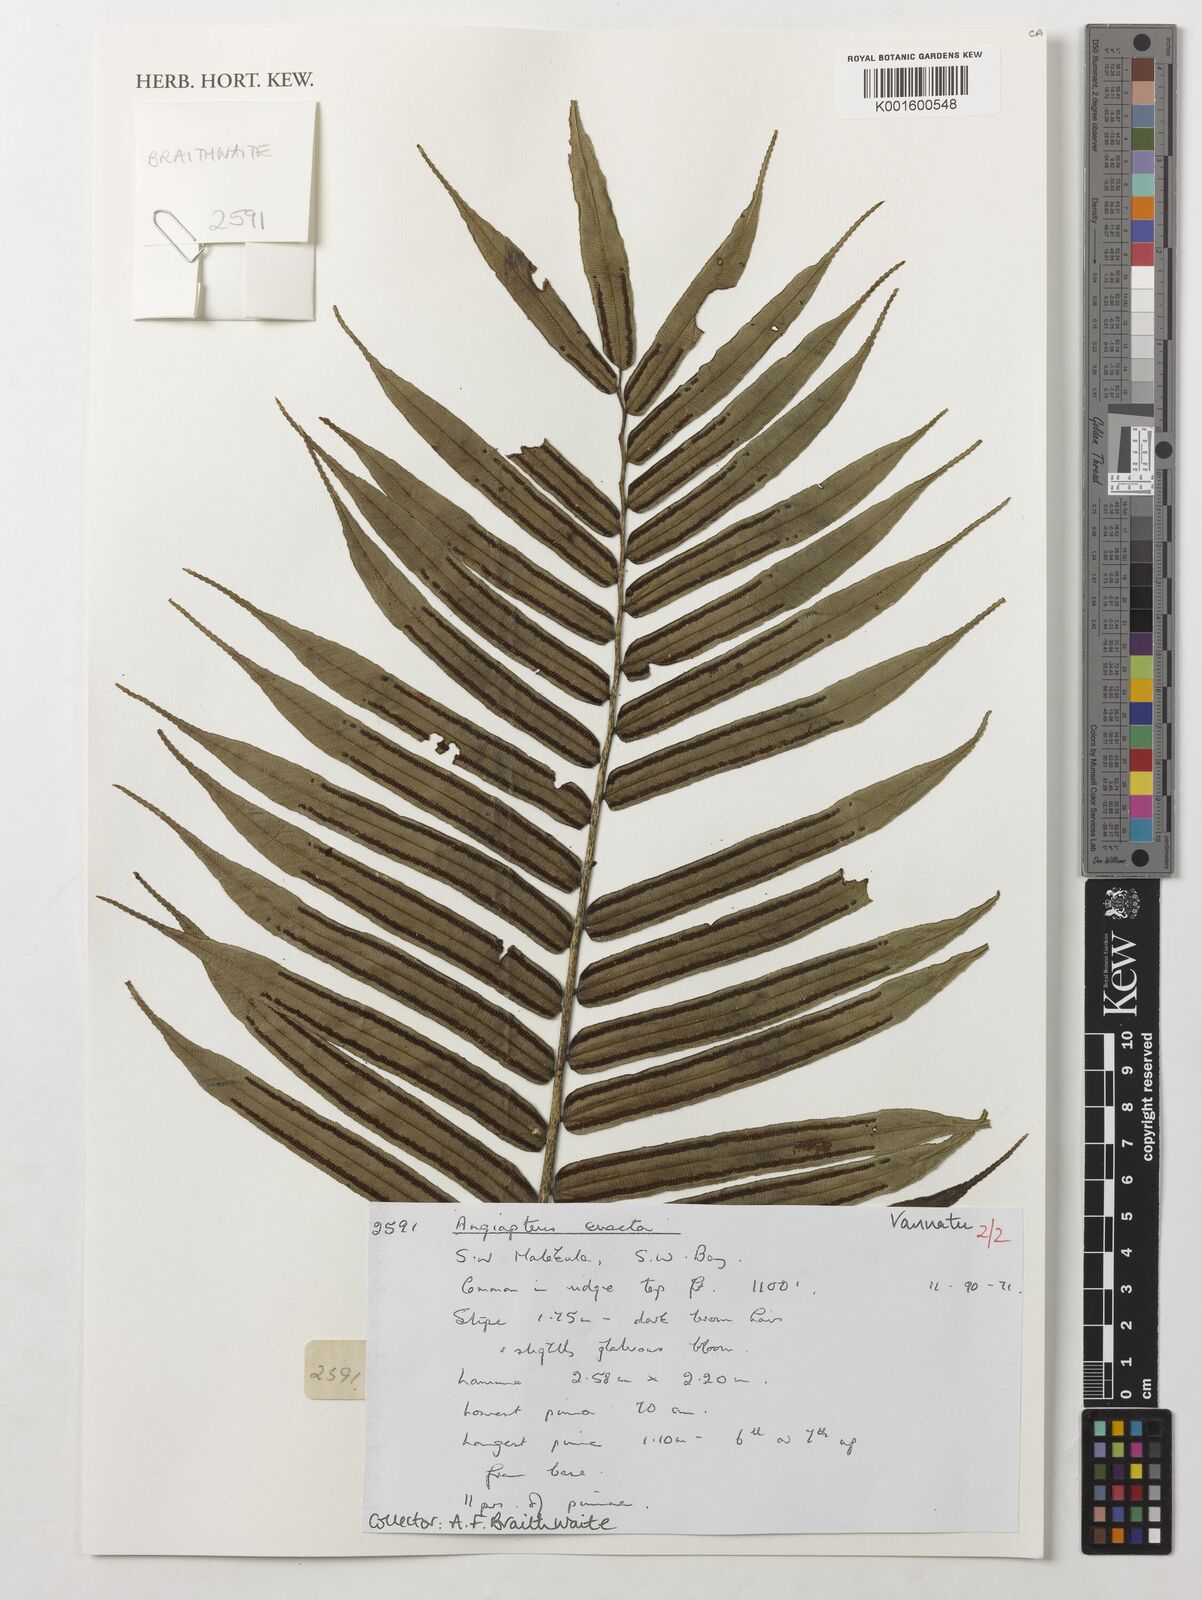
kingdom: Plantae
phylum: Tracheophyta
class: Polypodiopsida
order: Marattiales
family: Marattiaceae
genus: Angiopteris
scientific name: Angiopteris evecta
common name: Mule's-foot fern
